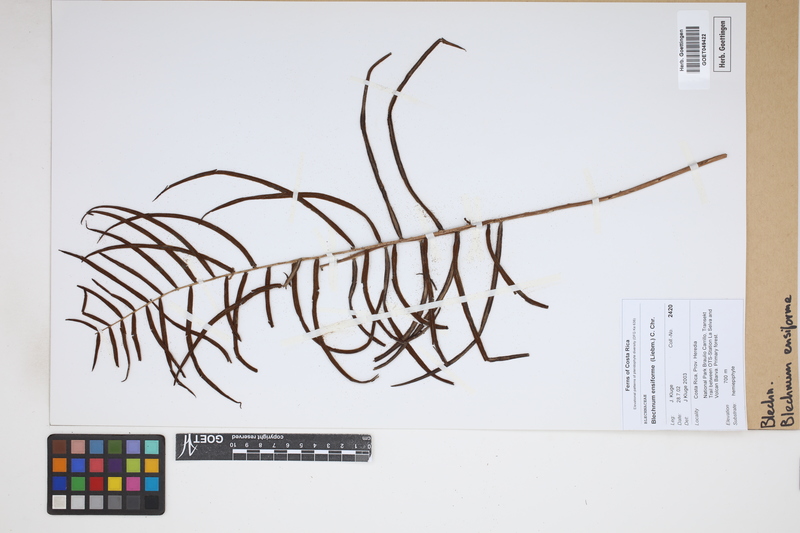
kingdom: Plantae
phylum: Tracheophyta
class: Polypodiopsida
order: Polypodiales
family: Blechnaceae
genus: Lomaridium
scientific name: Lomaridium ensiforme
